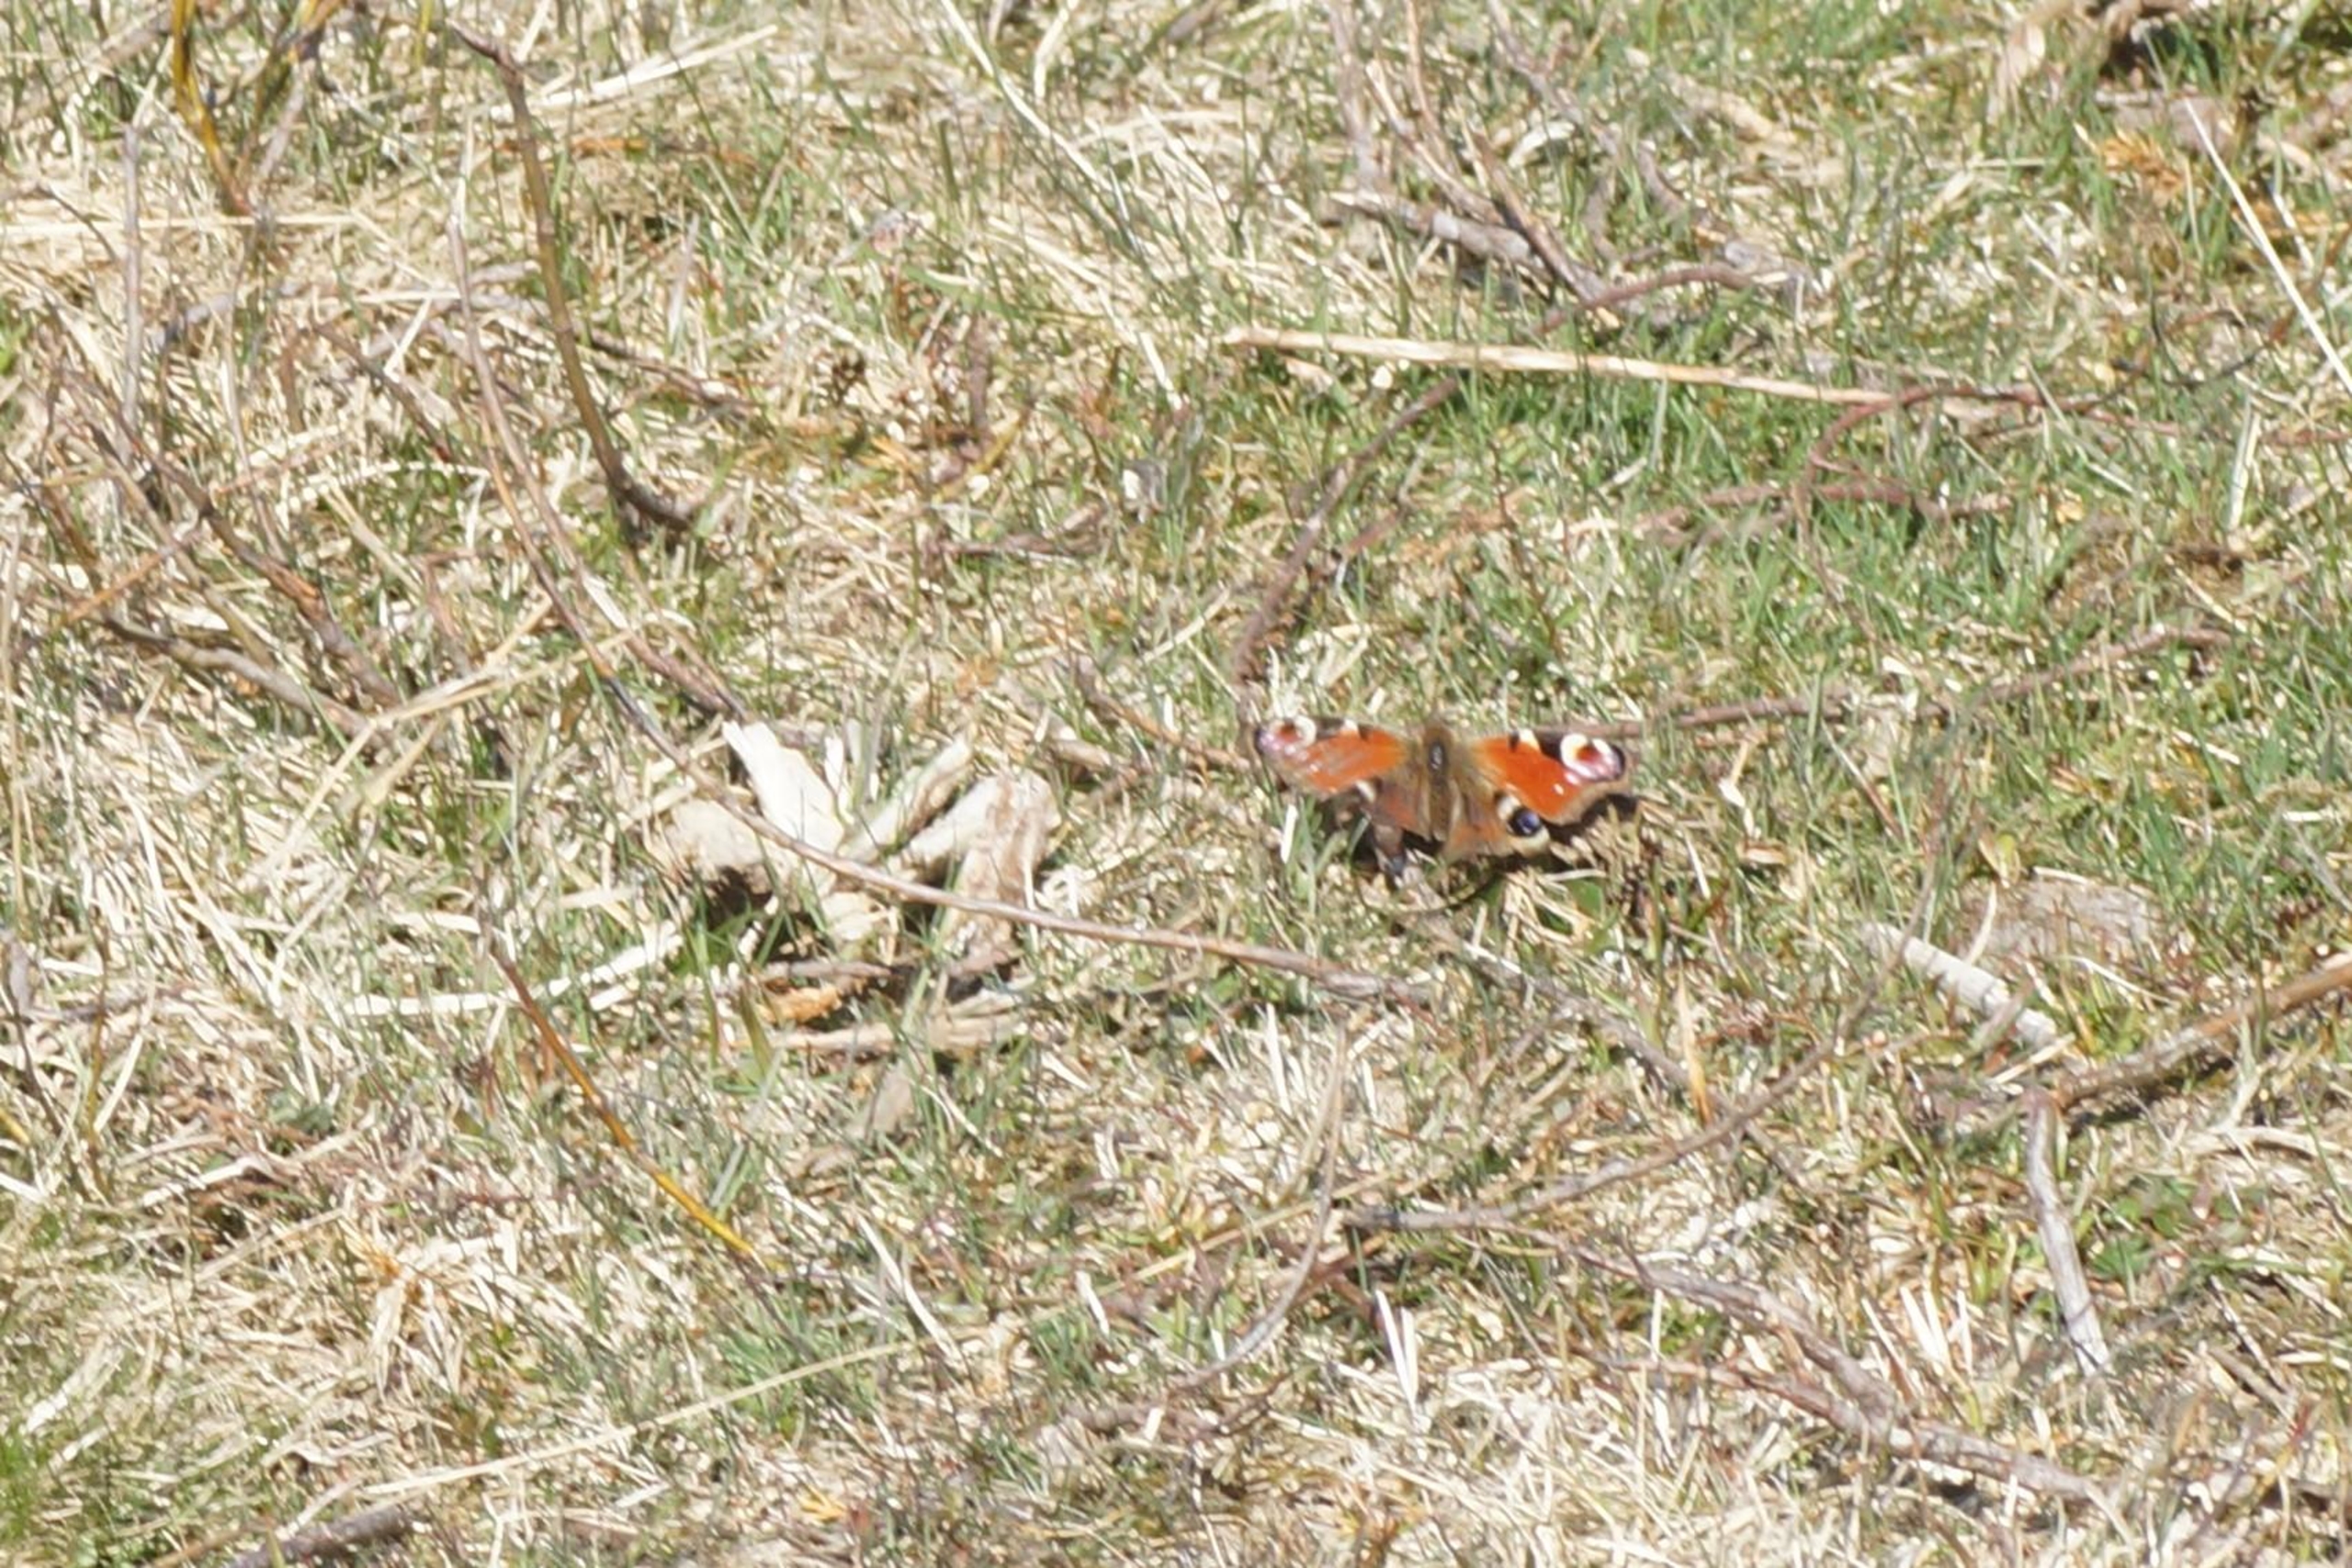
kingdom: Animalia
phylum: Arthropoda
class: Insecta
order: Lepidoptera
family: Nymphalidae
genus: Aglais
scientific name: Aglais io
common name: Dagpåfugleøje
